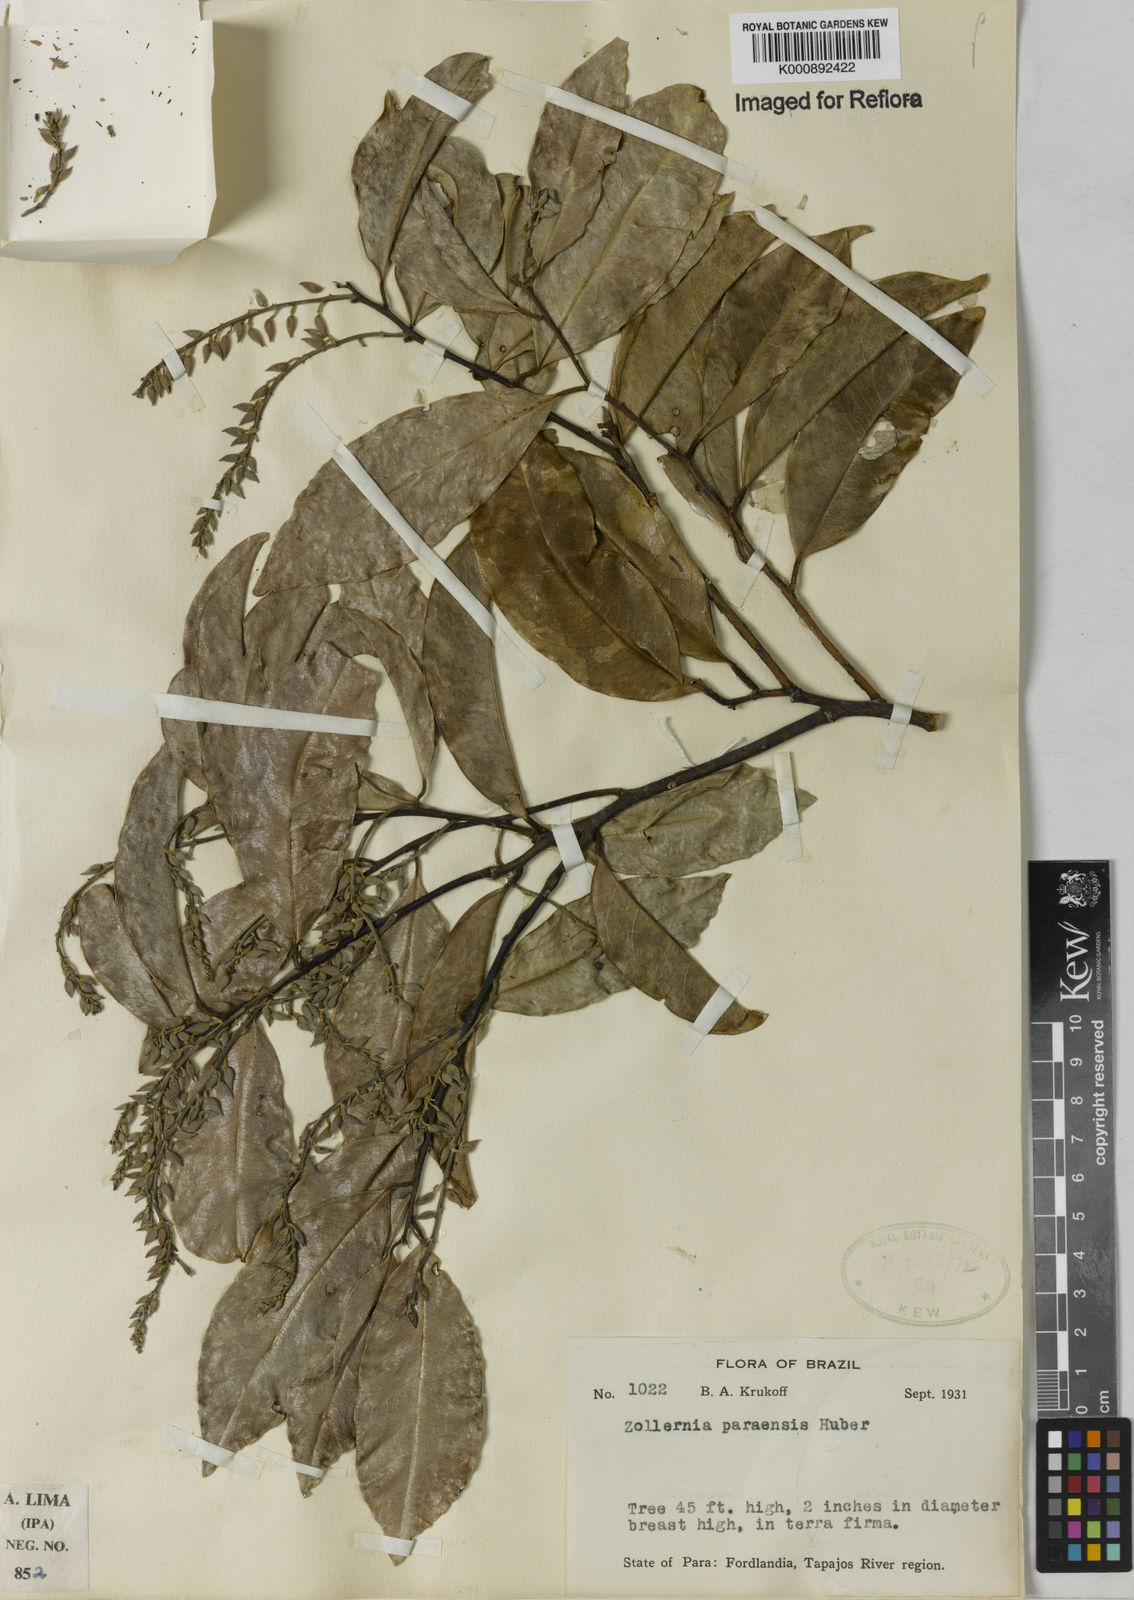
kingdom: Plantae
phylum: Tracheophyta
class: Magnoliopsida
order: Fabales
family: Fabaceae
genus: Zollernia
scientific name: Zollernia paraensis
